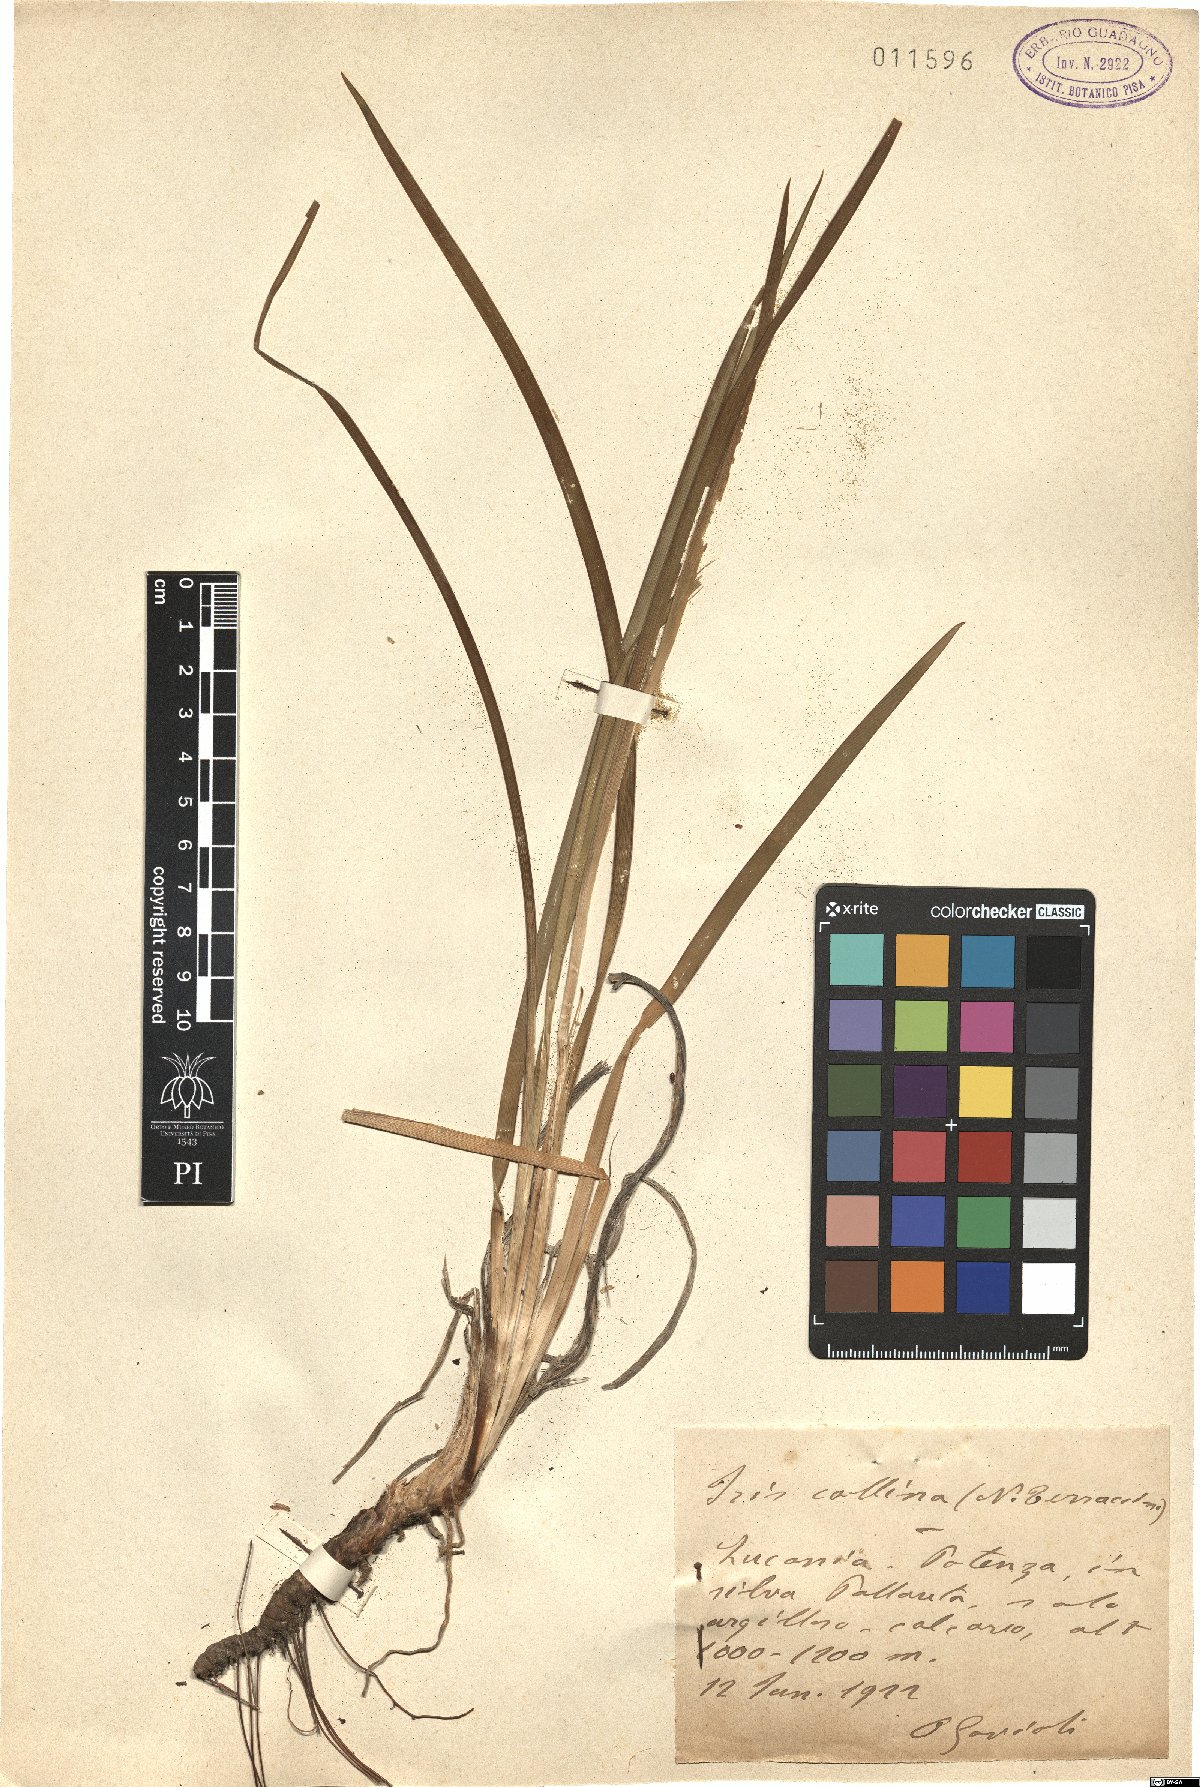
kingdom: Plantae
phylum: Tracheophyta
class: Liliopsida
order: Asparagales
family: Iridaceae
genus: Iris
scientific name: Iris sintenisii
